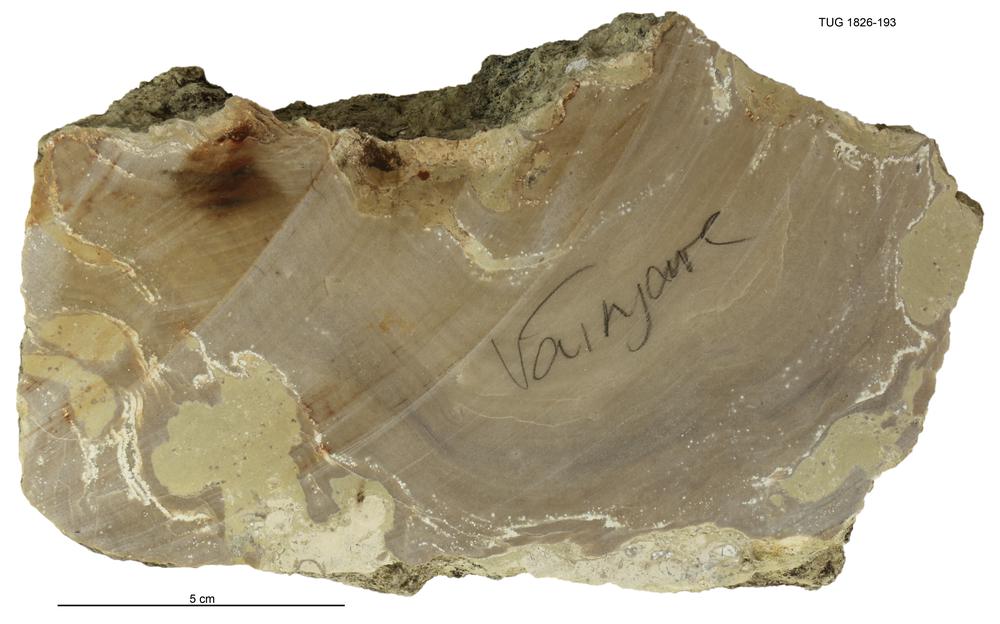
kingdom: Animalia
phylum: Porifera
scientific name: Porifera
